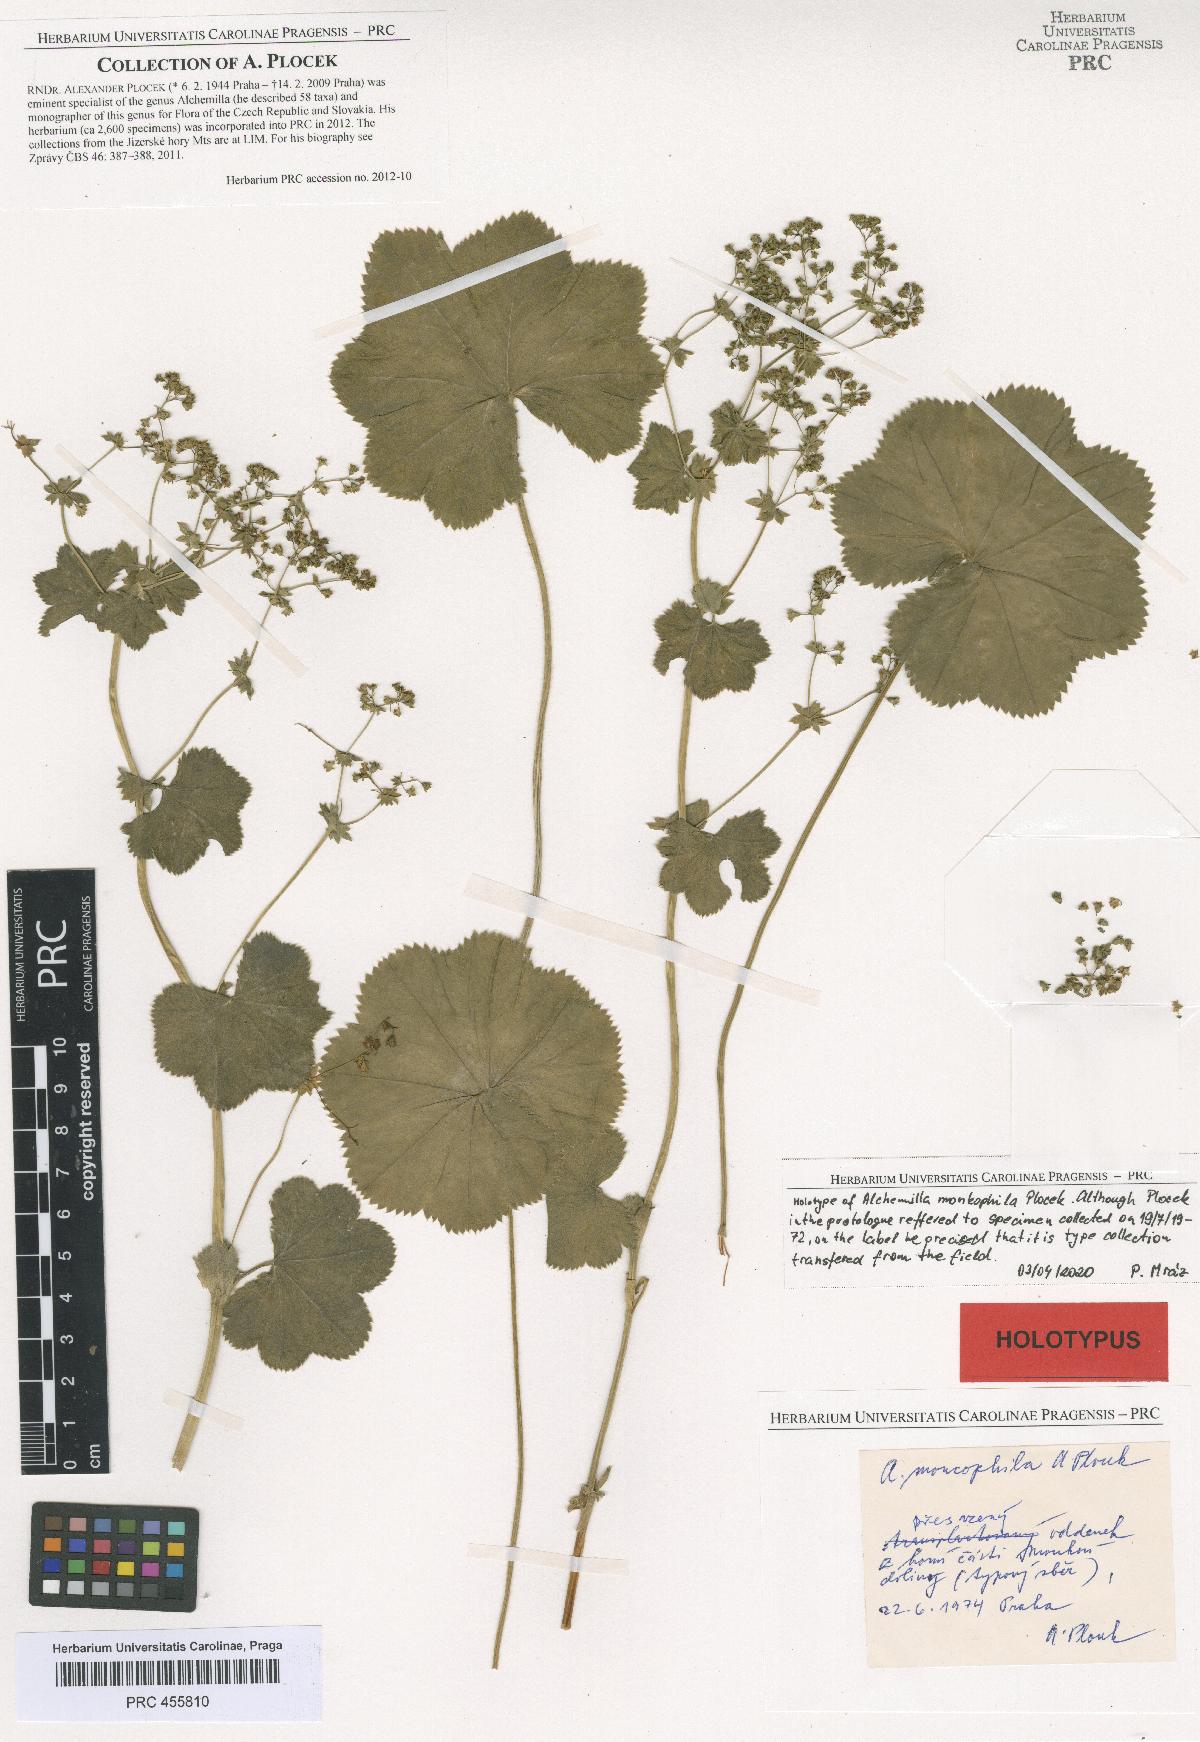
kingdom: Plantae
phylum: Tracheophyta
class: Magnoliopsida
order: Rosales
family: Rosaceae
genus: Alchemilla
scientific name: Alchemilla moncophila
